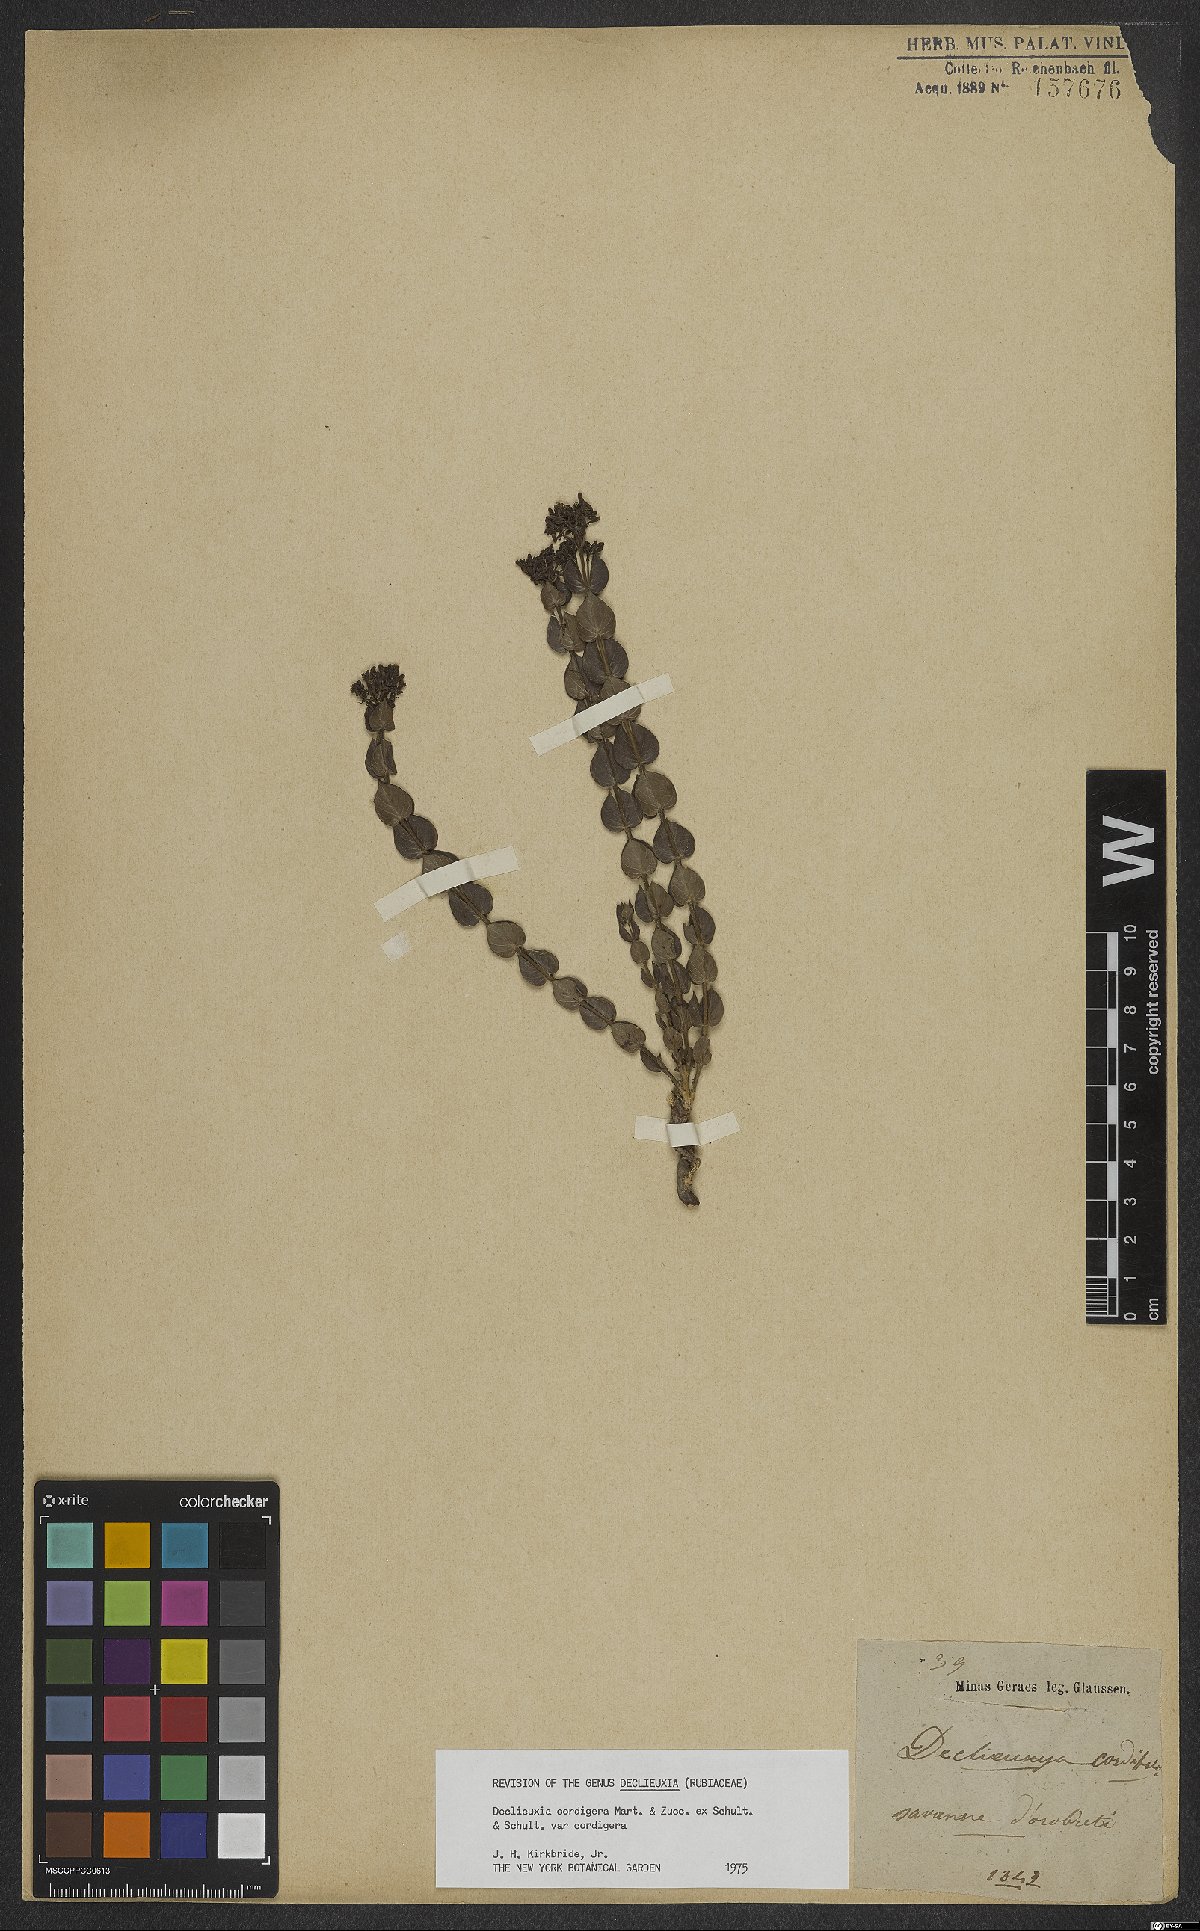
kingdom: Plantae
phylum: Tracheophyta
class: Magnoliopsida
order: Gentianales
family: Rubiaceae
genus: Declieuxia
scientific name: Declieuxia cordigera
